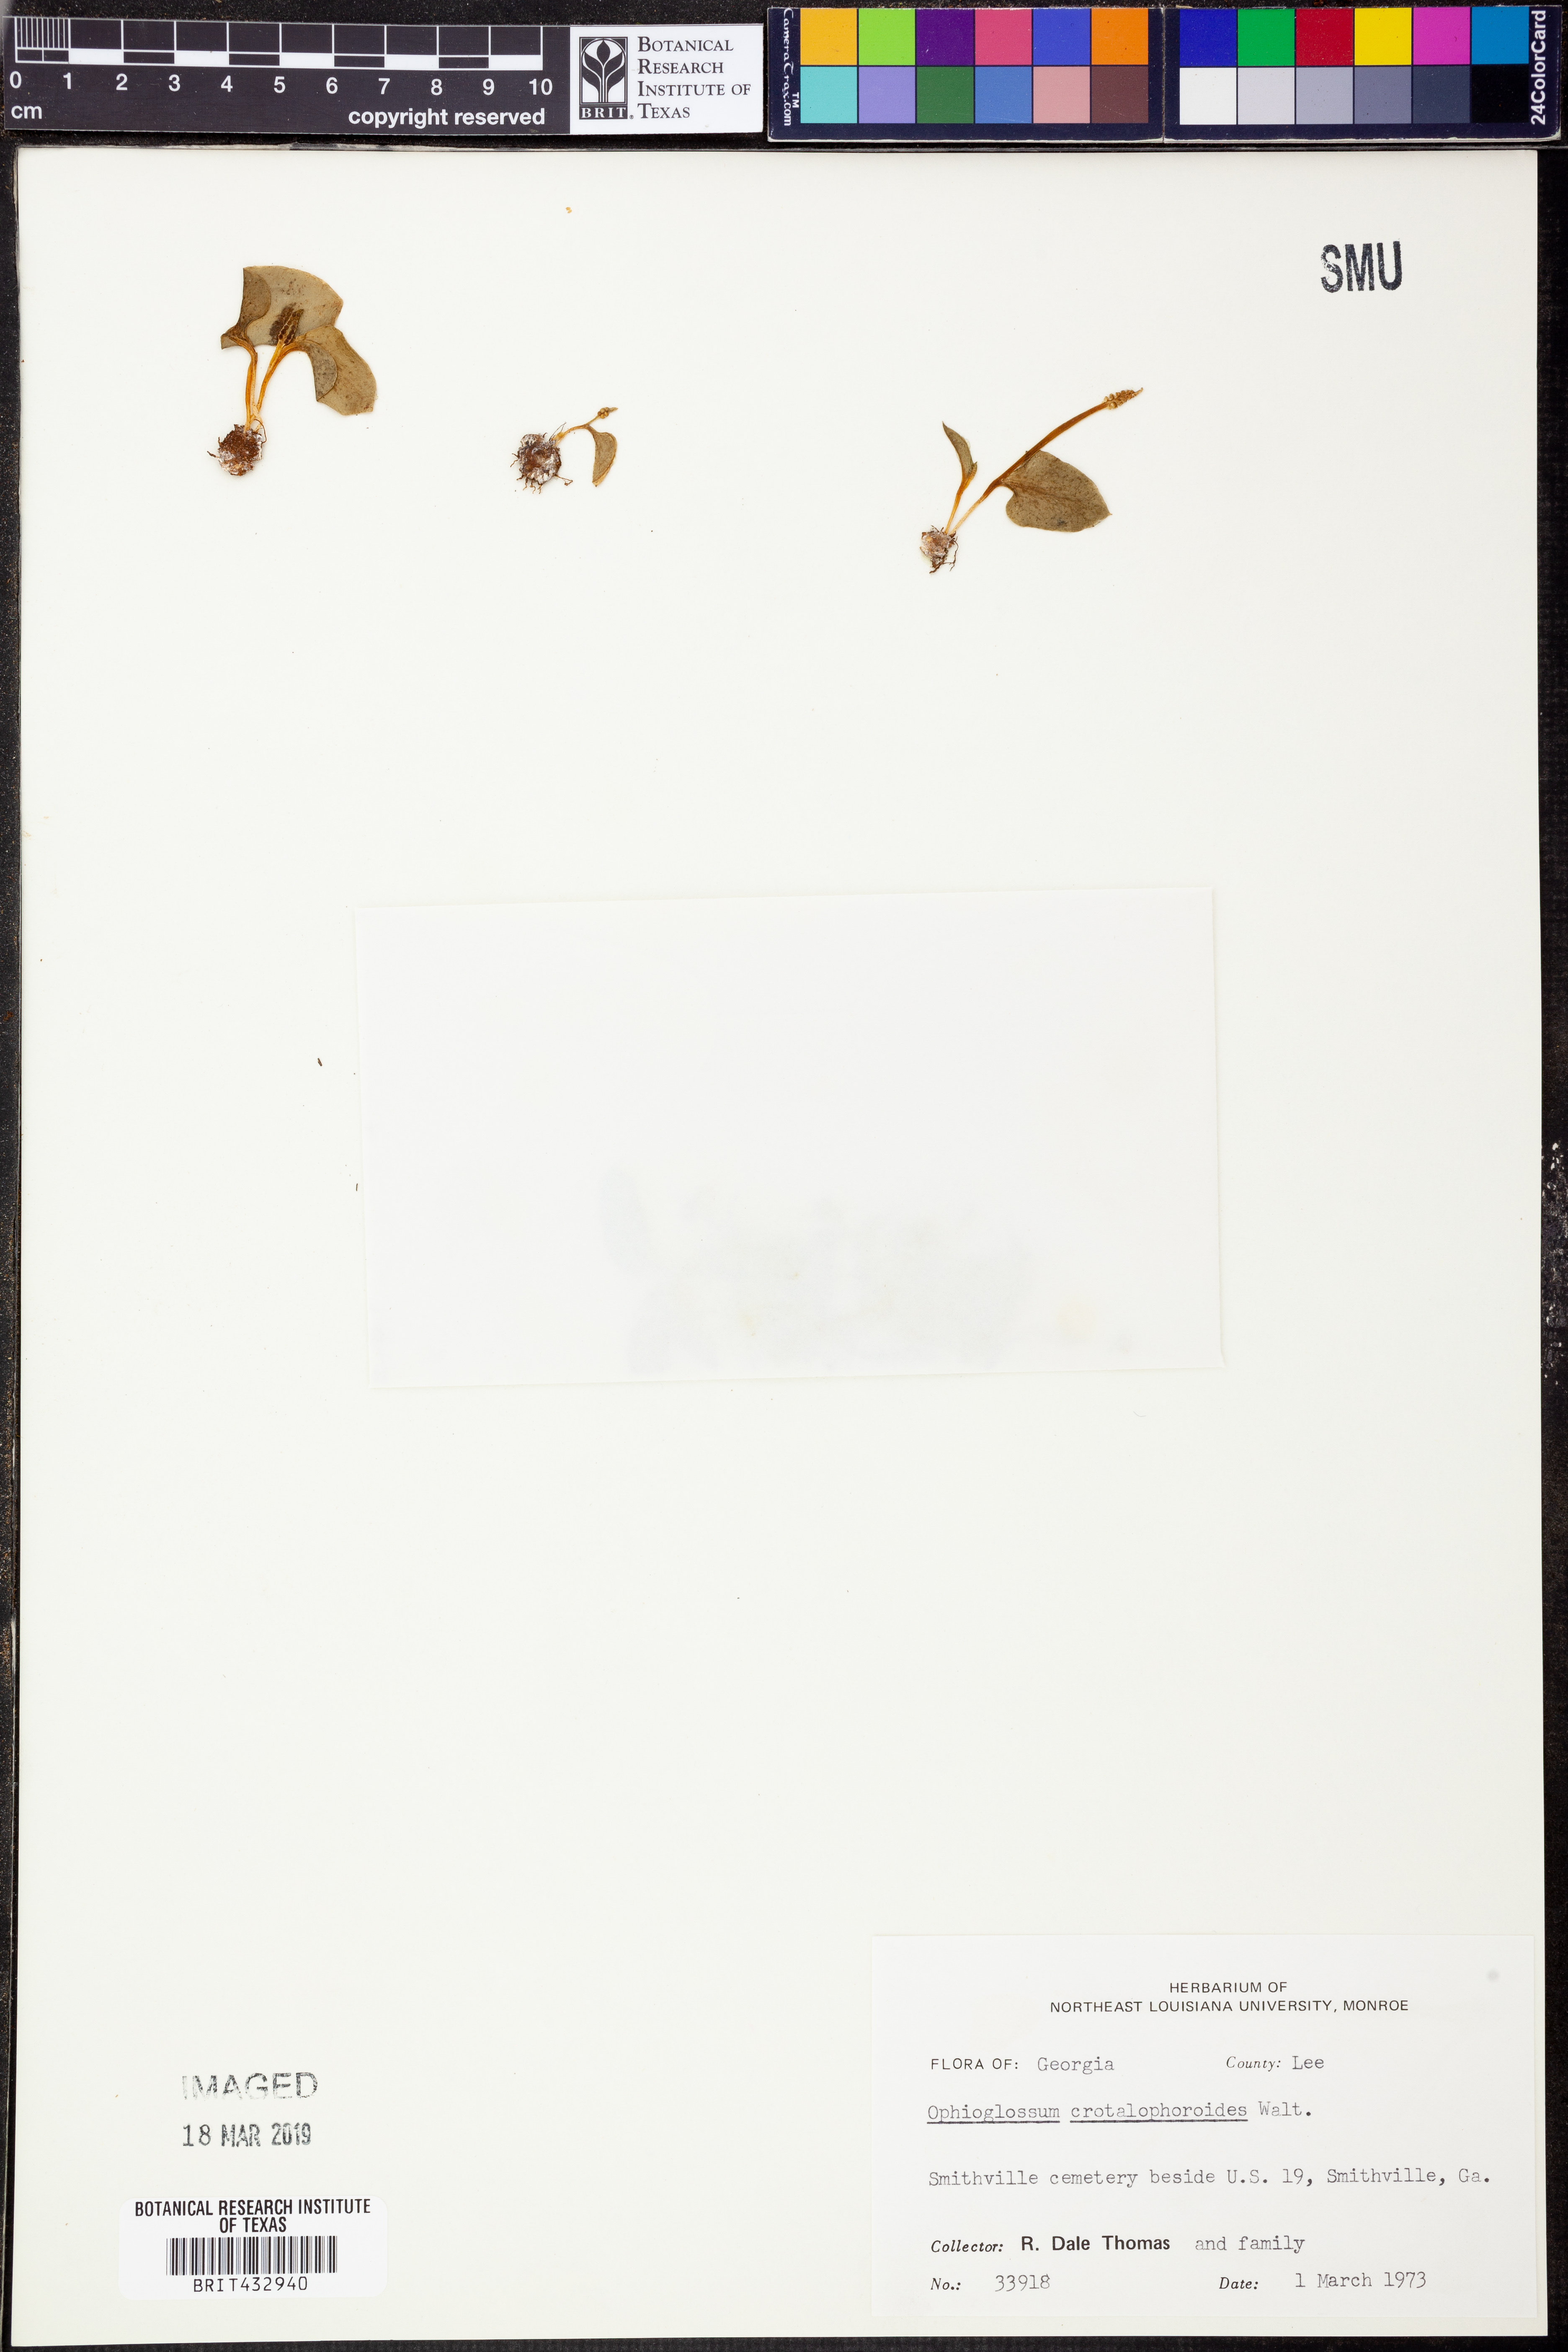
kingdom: Plantae
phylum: Tracheophyta
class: Polypodiopsida
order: Ophioglossales
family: Ophioglossaceae
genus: Ophioglossum
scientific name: Ophioglossum crotalophoroides
